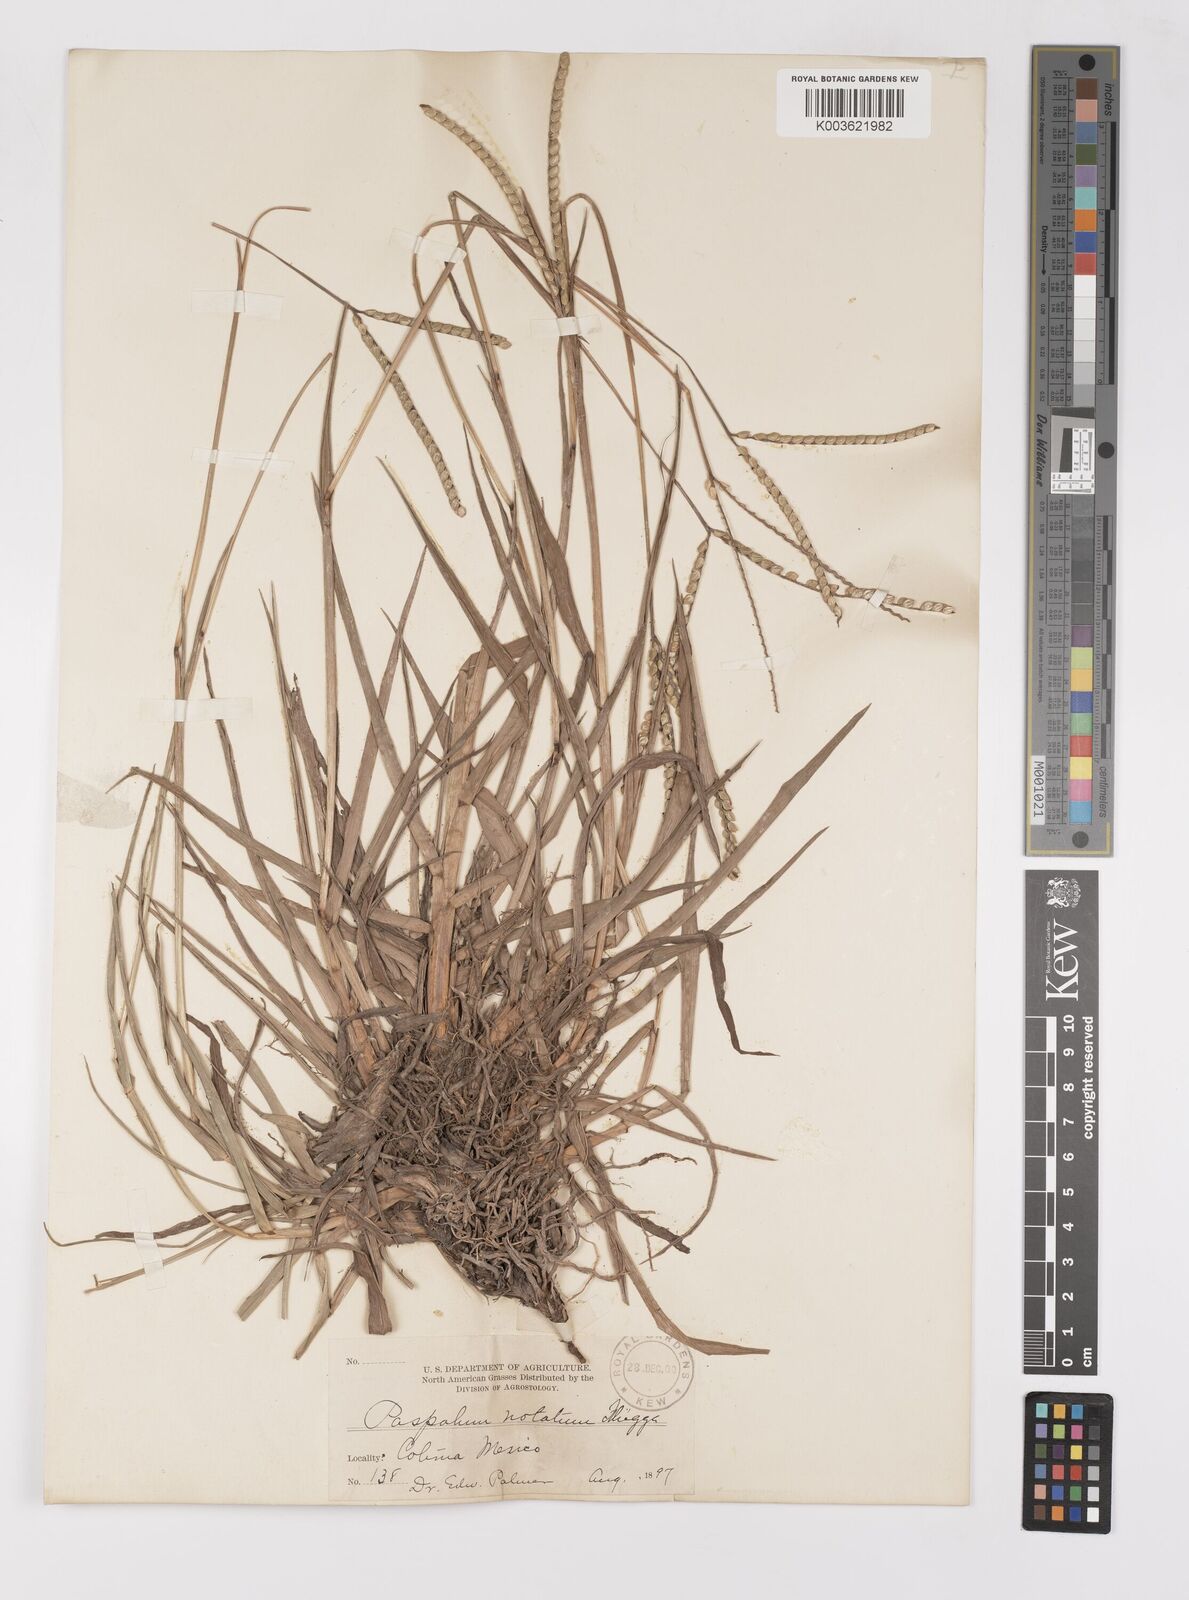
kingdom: Plantae
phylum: Tracheophyta
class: Liliopsida
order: Poales
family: Poaceae
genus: Paspalum
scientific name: Paspalum notatum
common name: Bahiagrass
